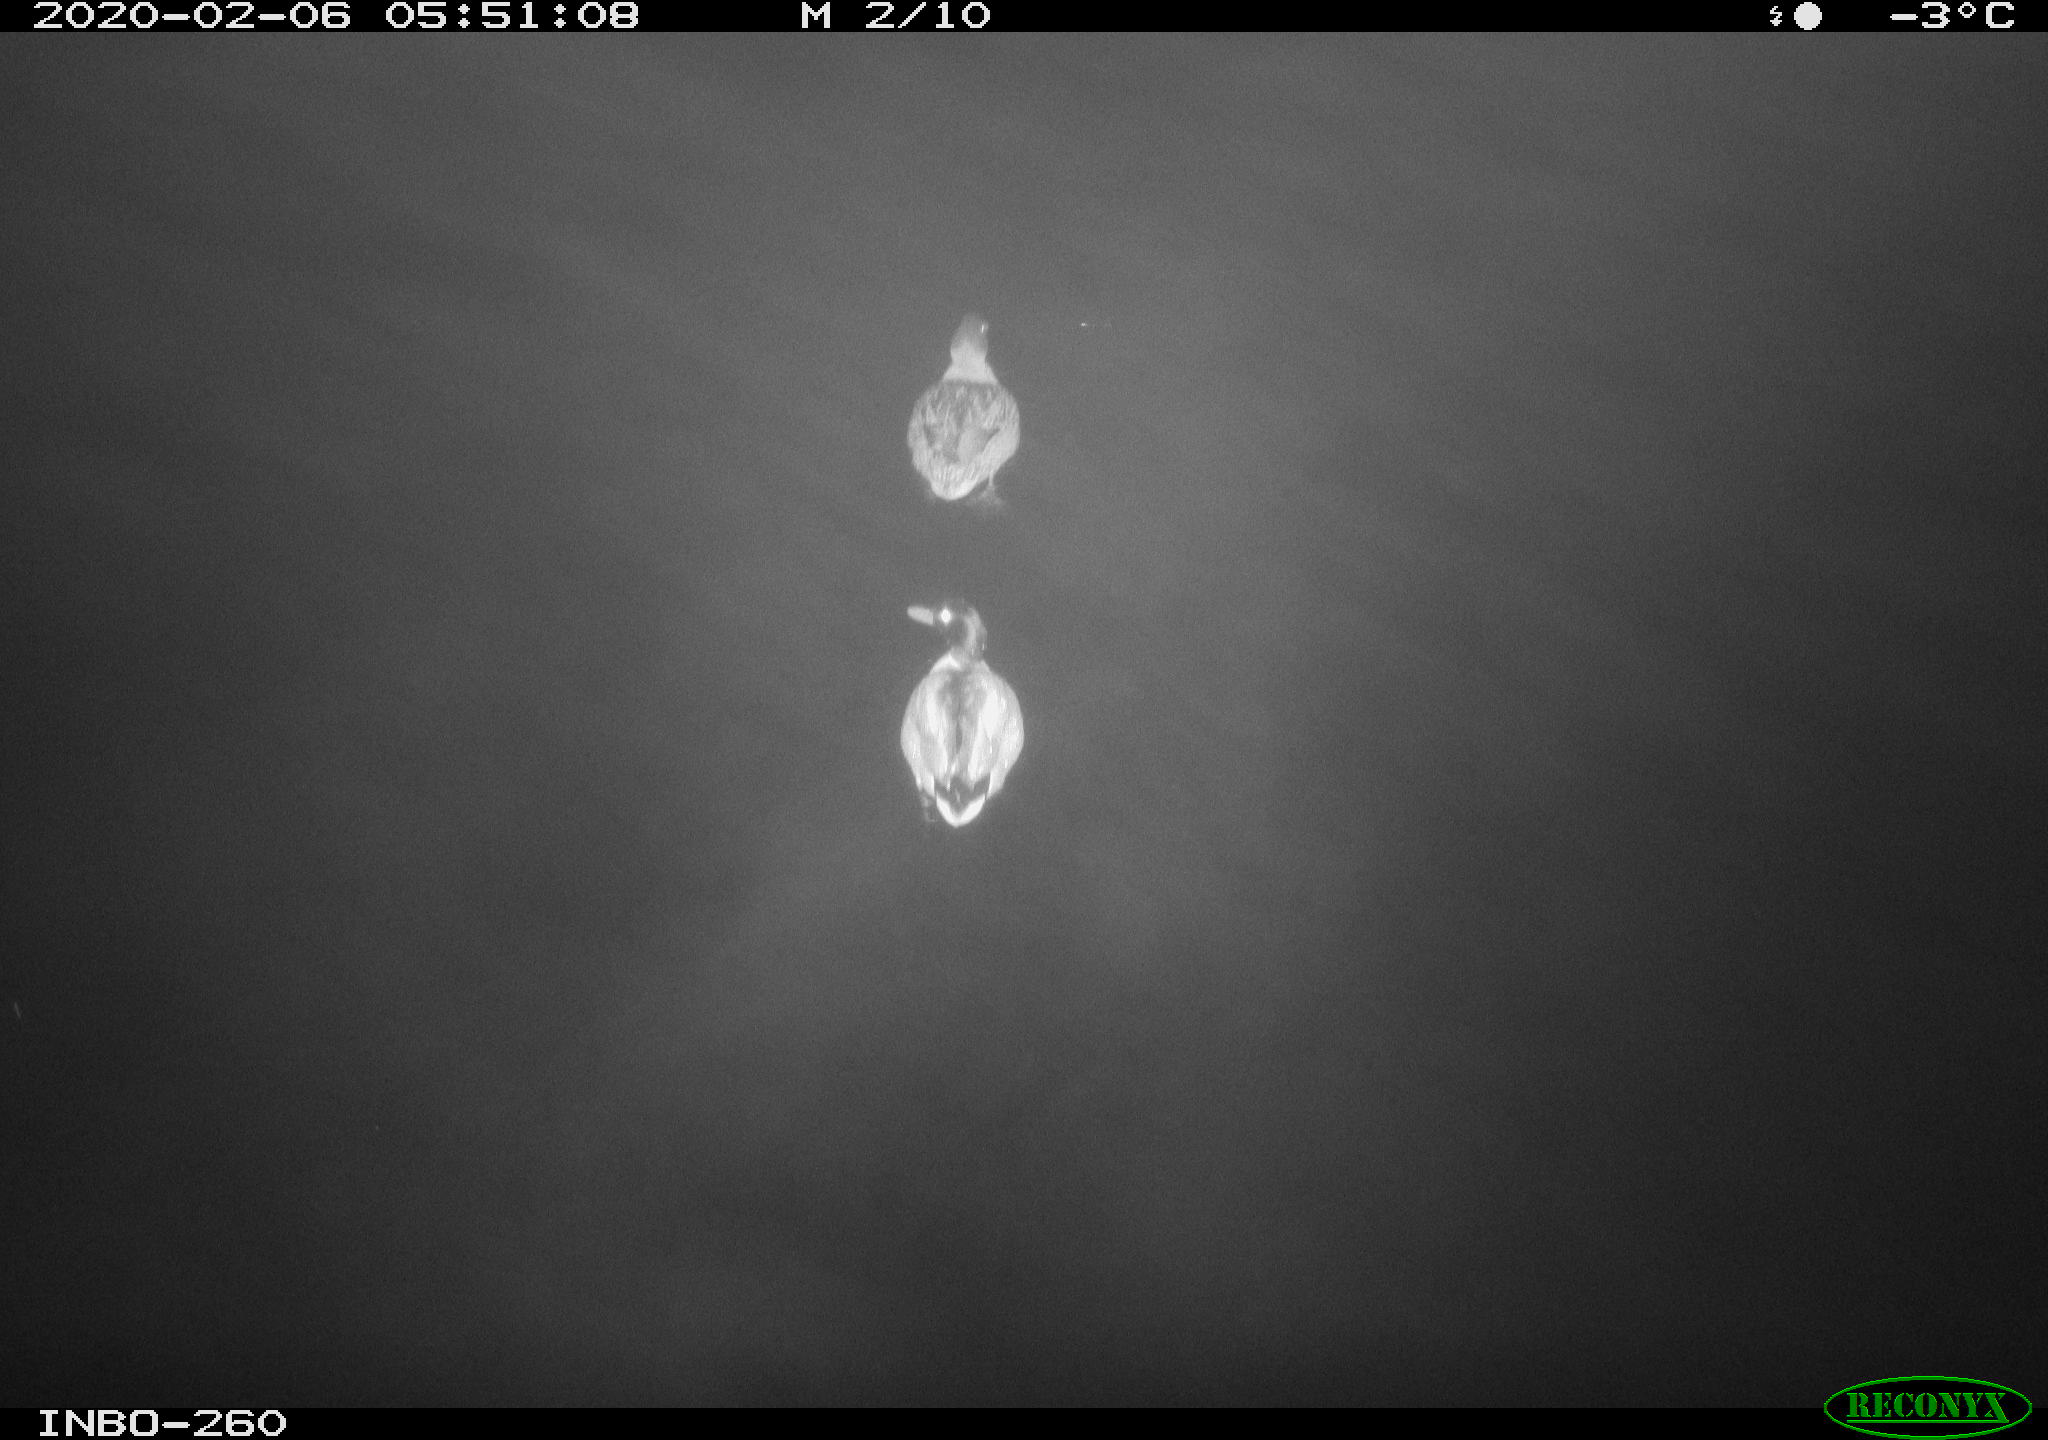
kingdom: Animalia
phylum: Chordata
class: Aves
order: Anseriformes
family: Anatidae
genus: Anas
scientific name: Anas platyrhynchos
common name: Mallard
